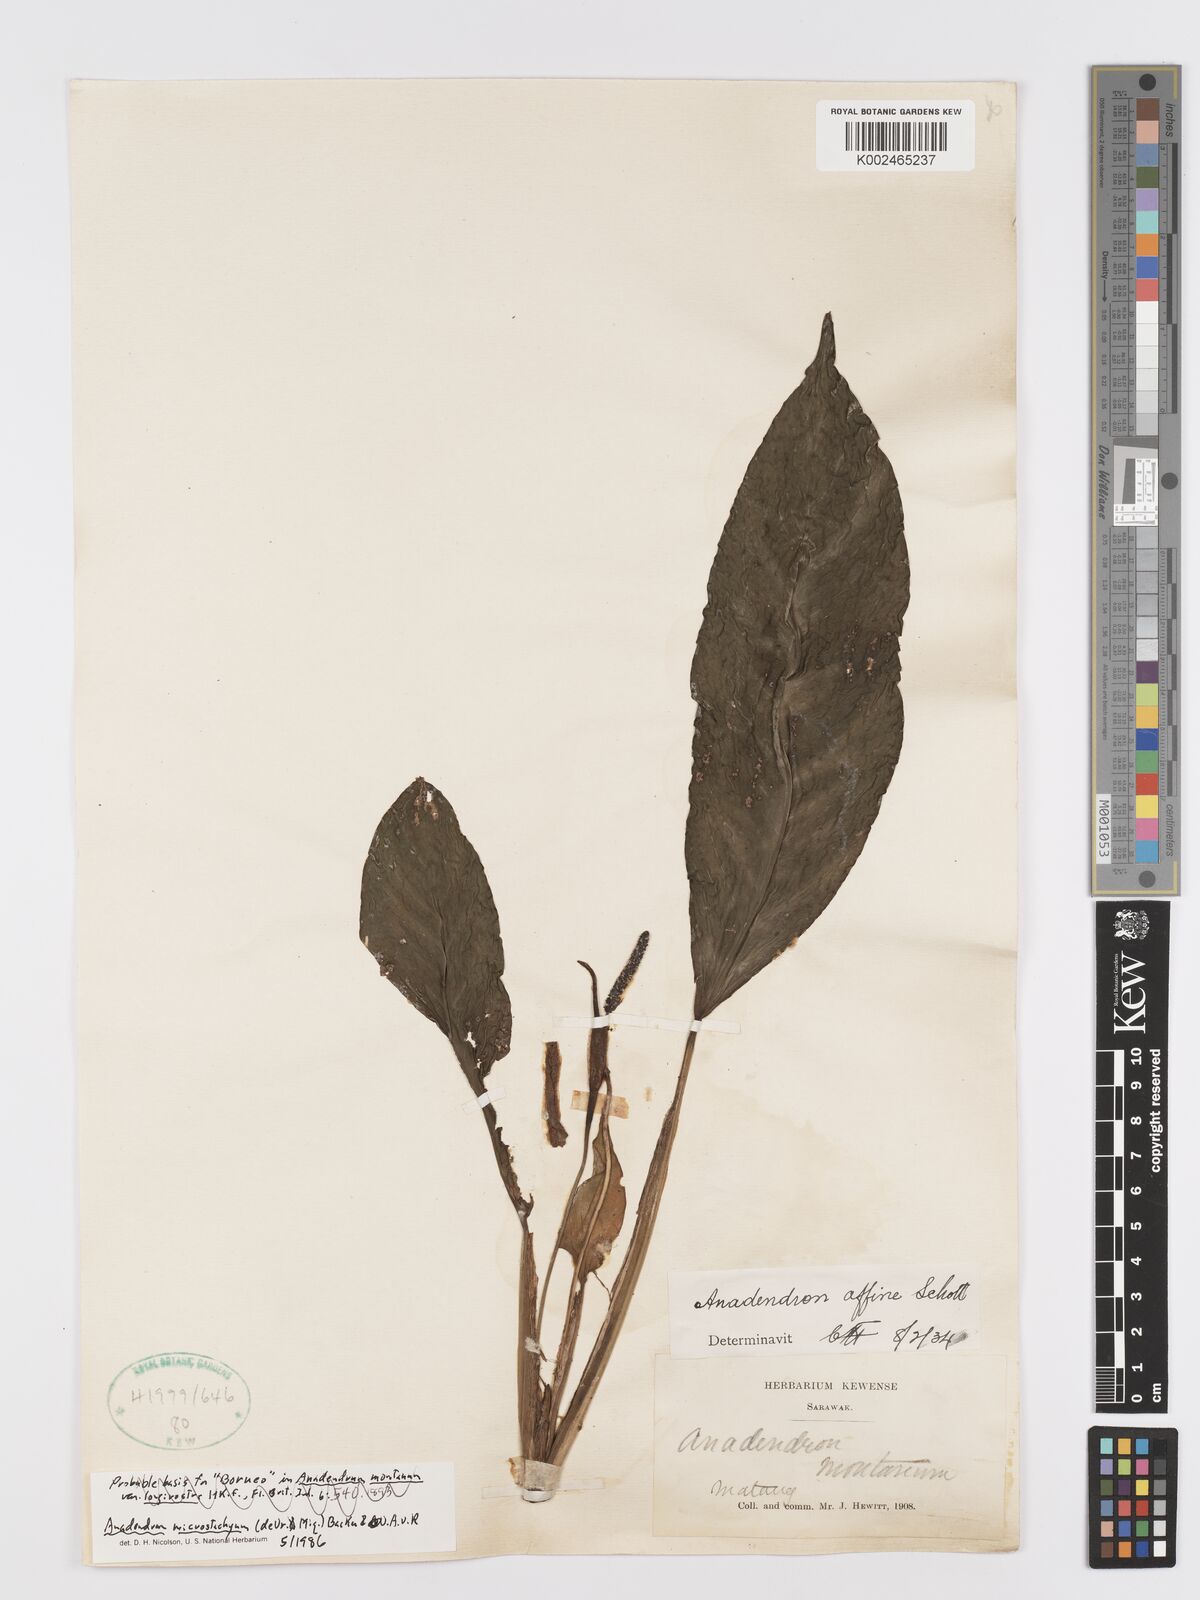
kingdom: Plantae
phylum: Tracheophyta
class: Liliopsida
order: Alismatales
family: Araceae
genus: Anadendrum
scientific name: Anadendrum microstachyum
